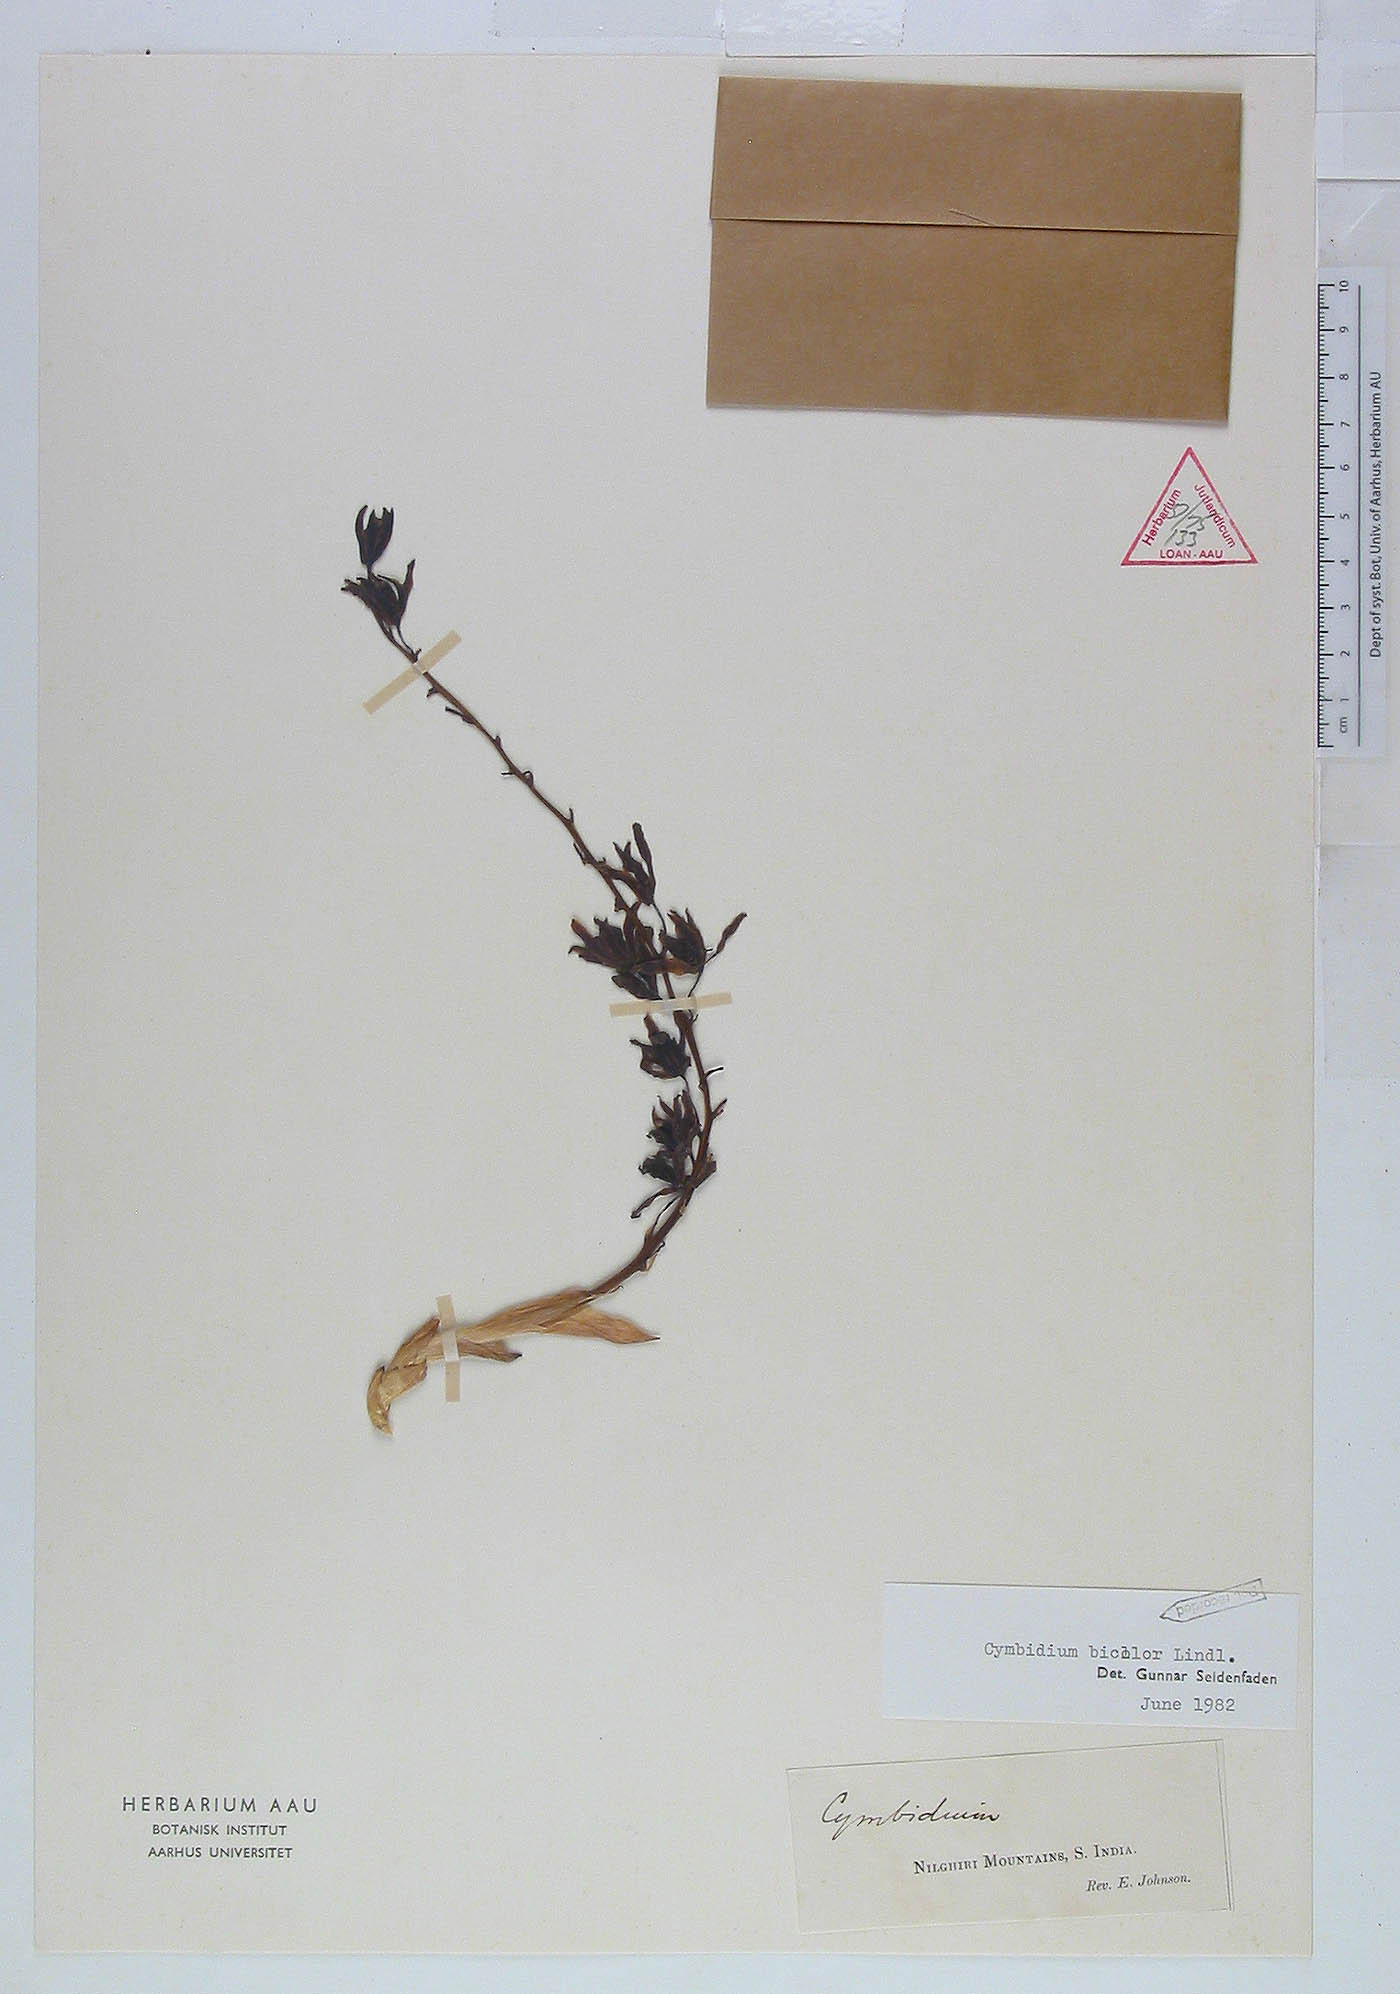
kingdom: Plantae
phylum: Tracheophyta
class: Liliopsida
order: Asparagales
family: Orchidaceae
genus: Cymbidium
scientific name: Cymbidium bicolor
